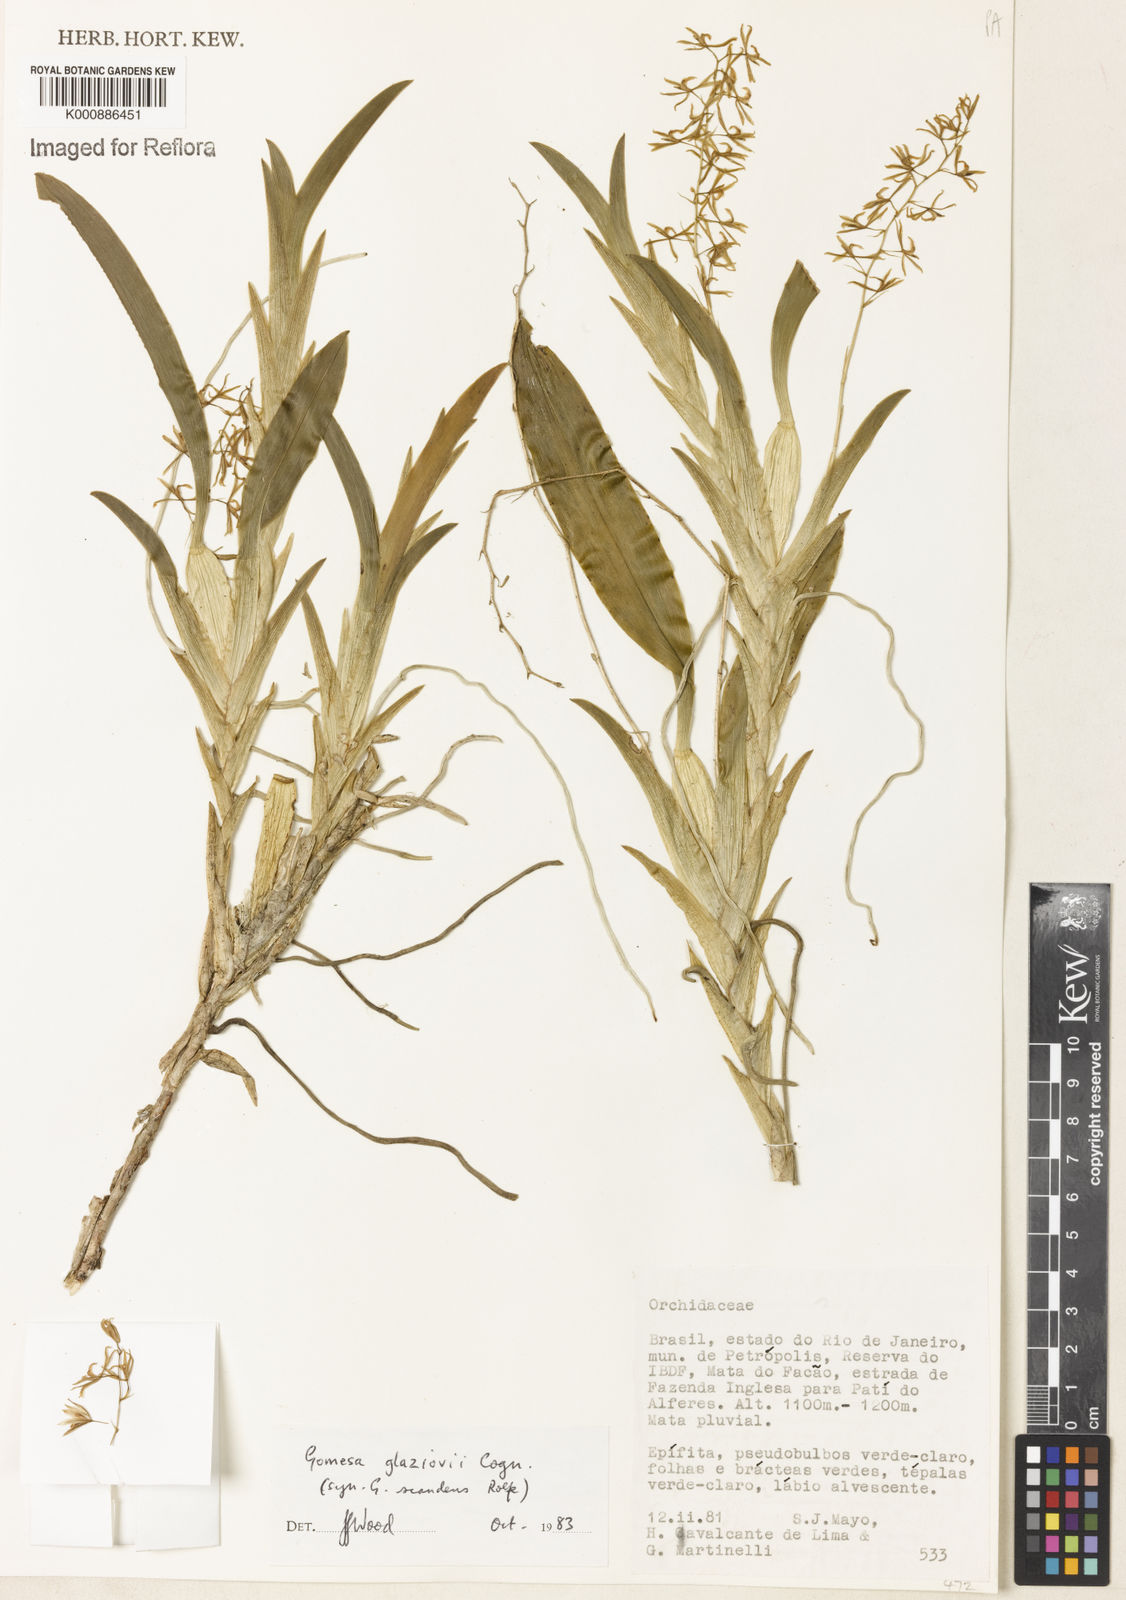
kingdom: Plantae
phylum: Tracheophyta
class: Liliopsida
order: Asparagales
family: Orchidaceae
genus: Gomesa
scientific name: Gomesa glaziovii
